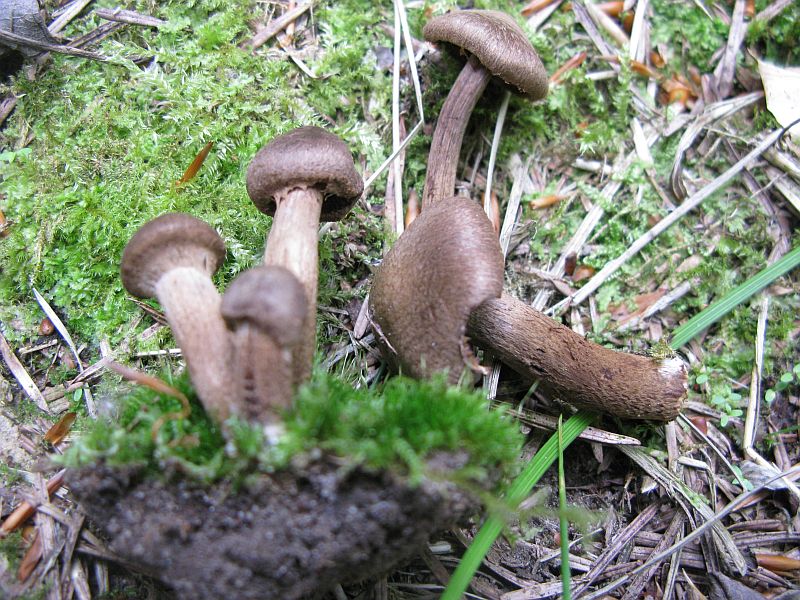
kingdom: Fungi
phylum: Basidiomycota
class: Agaricomycetes
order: Agaricales
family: Inocybaceae
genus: Inocybe
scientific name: Inocybe subcarpta
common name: plantage-trævlhat
